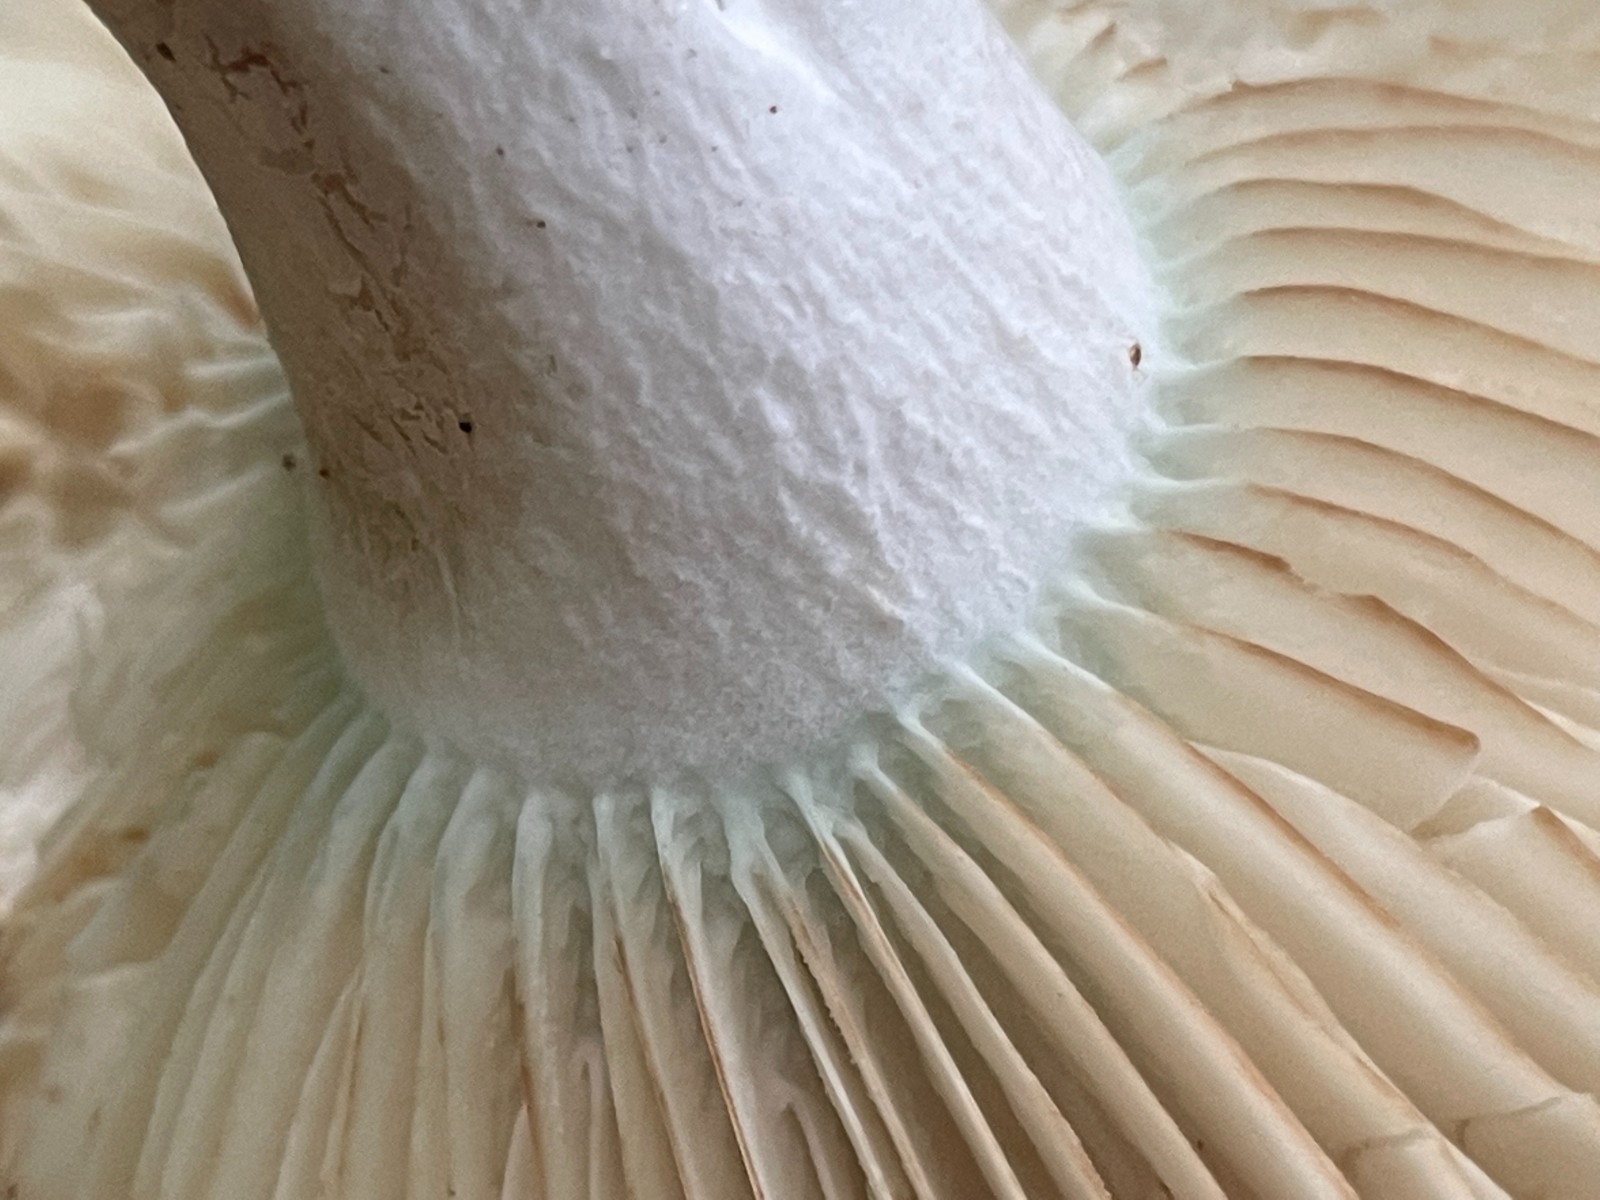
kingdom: Fungi
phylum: Basidiomycota
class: Agaricomycetes
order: Russulales
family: Russulaceae
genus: Russula
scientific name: Russula chloroides
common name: grønhalset tragt-skørhat
